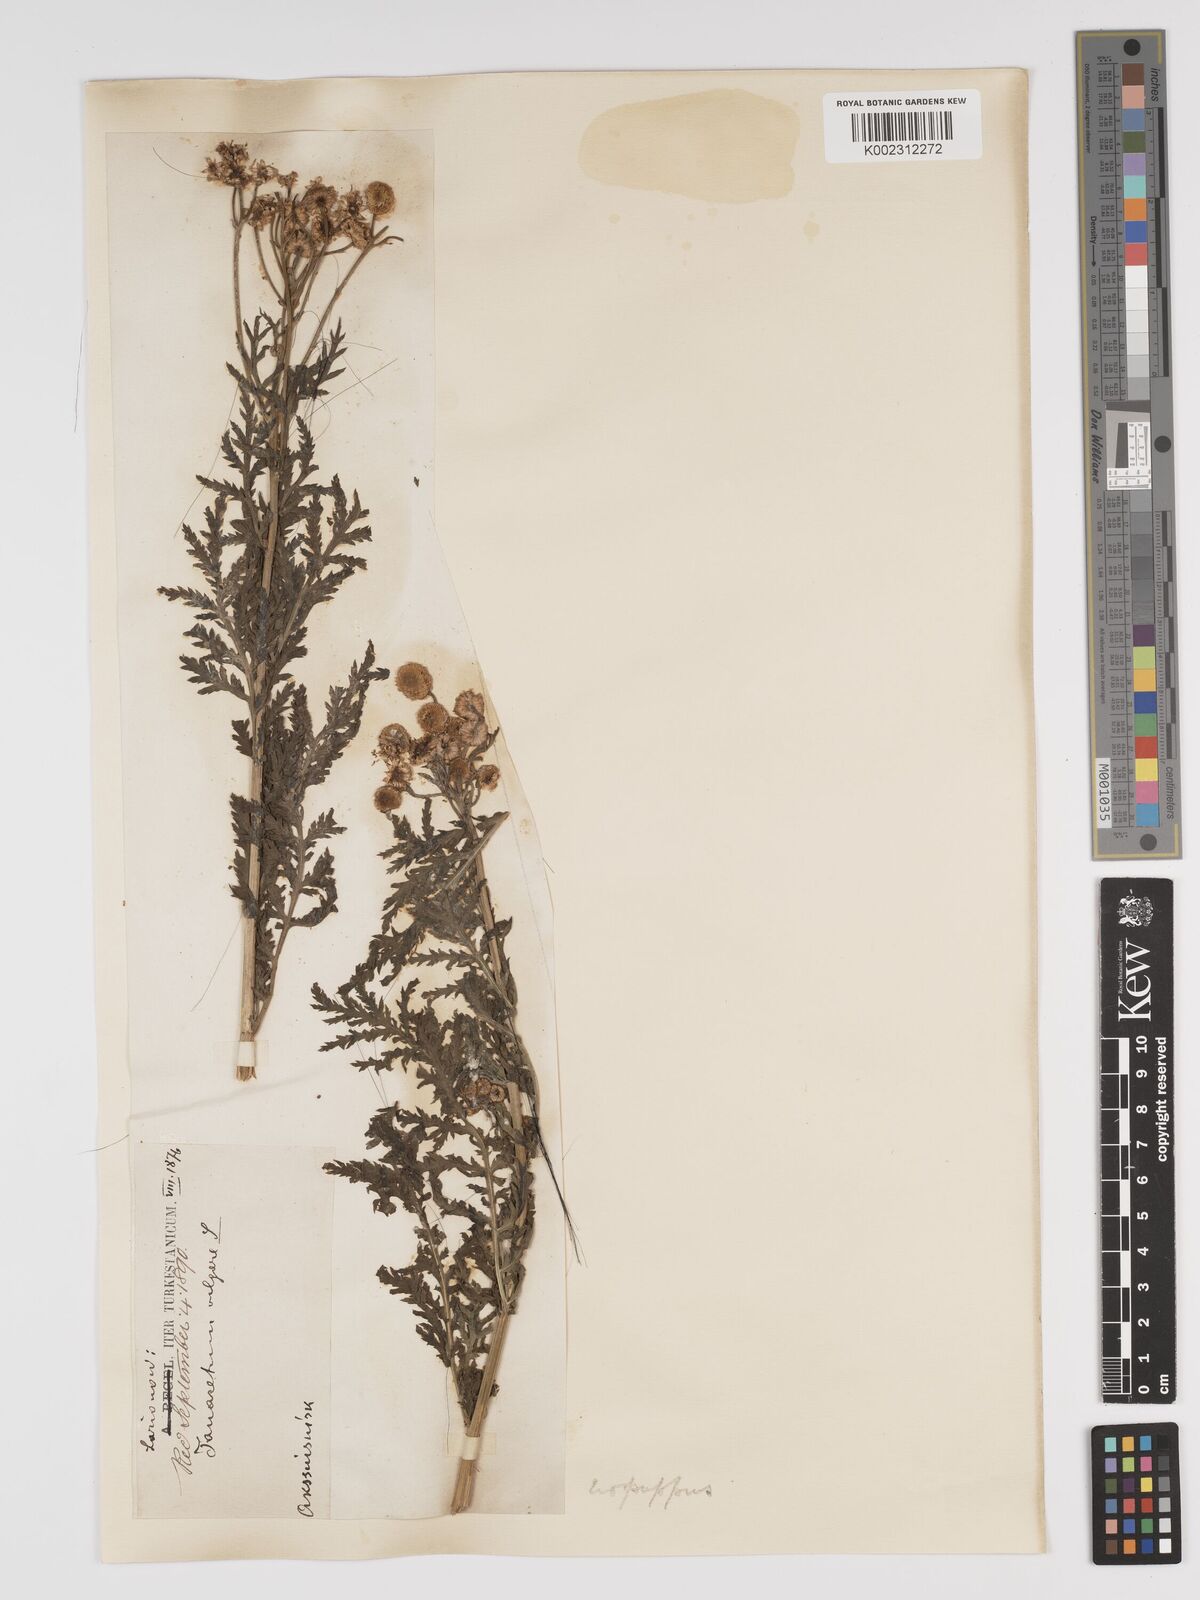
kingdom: Plantae
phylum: Tracheophyta
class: Magnoliopsida
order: Asterales
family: Asteraceae
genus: Tanacetum
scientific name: Tanacetum vulgare
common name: Common tansy
